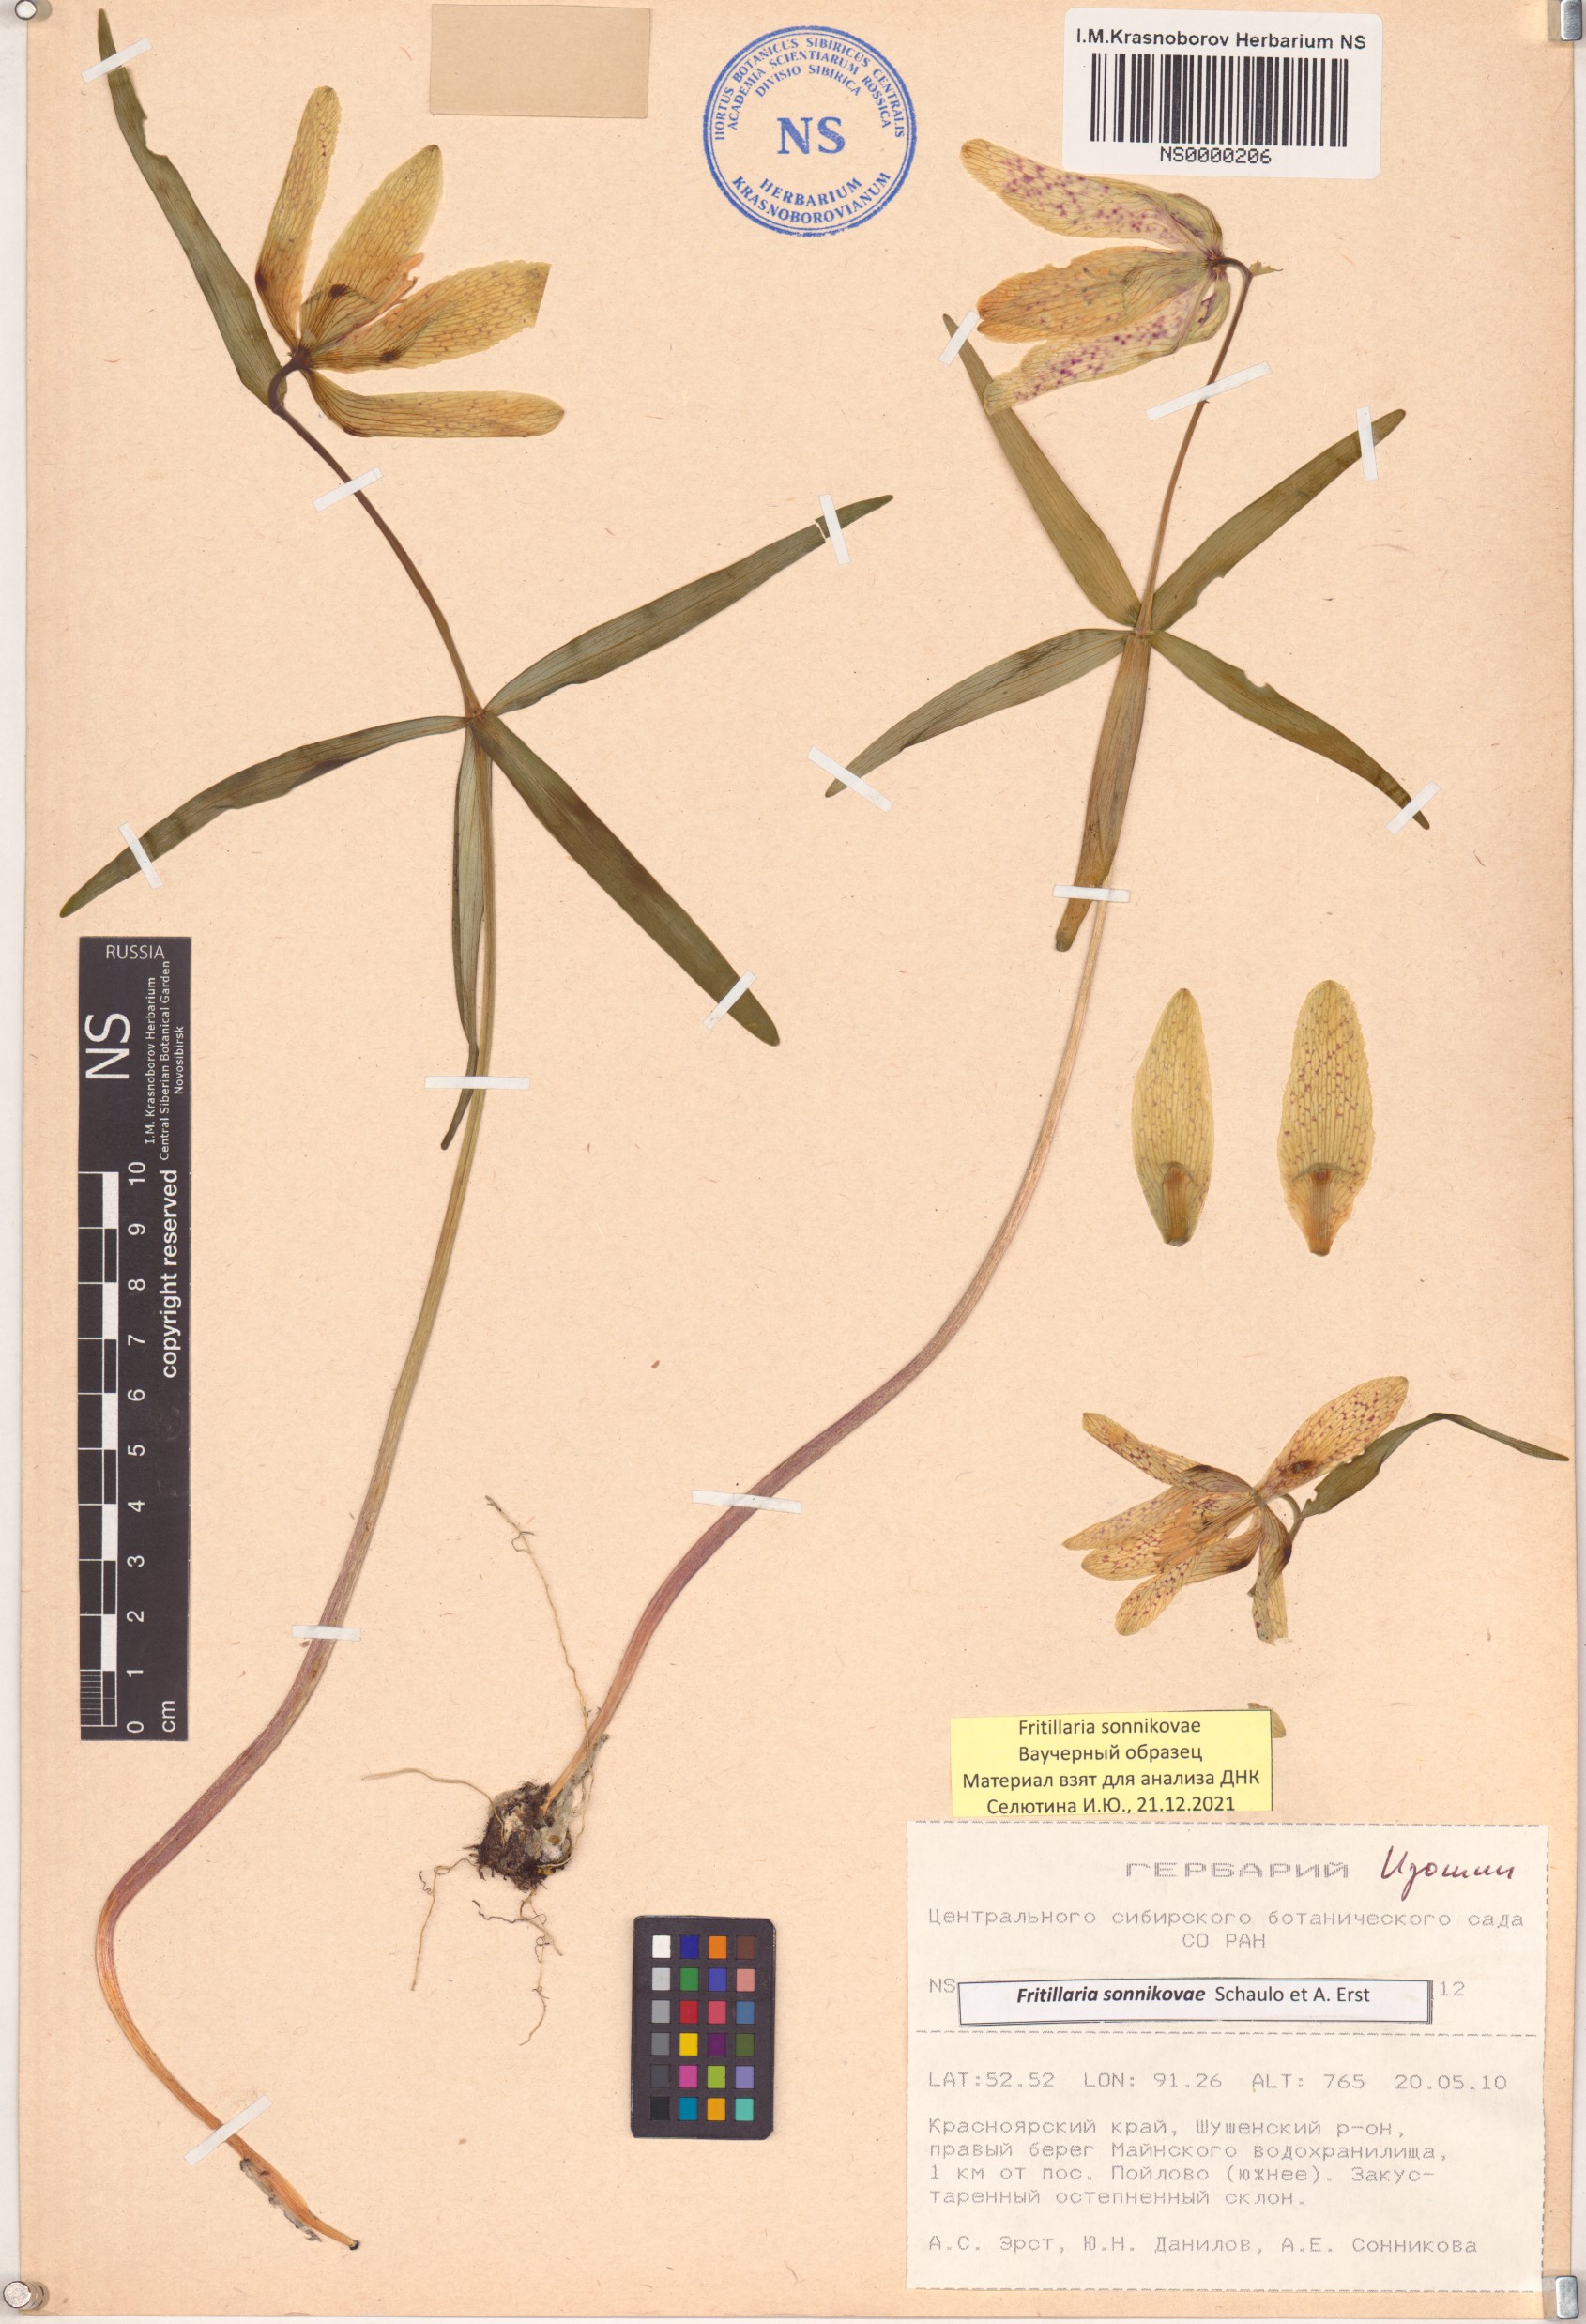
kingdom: Plantae
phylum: Tracheophyta
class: Liliopsida
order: Liliales
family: Liliaceae
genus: Fritillaria
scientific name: Fritillaria sonnikovae
